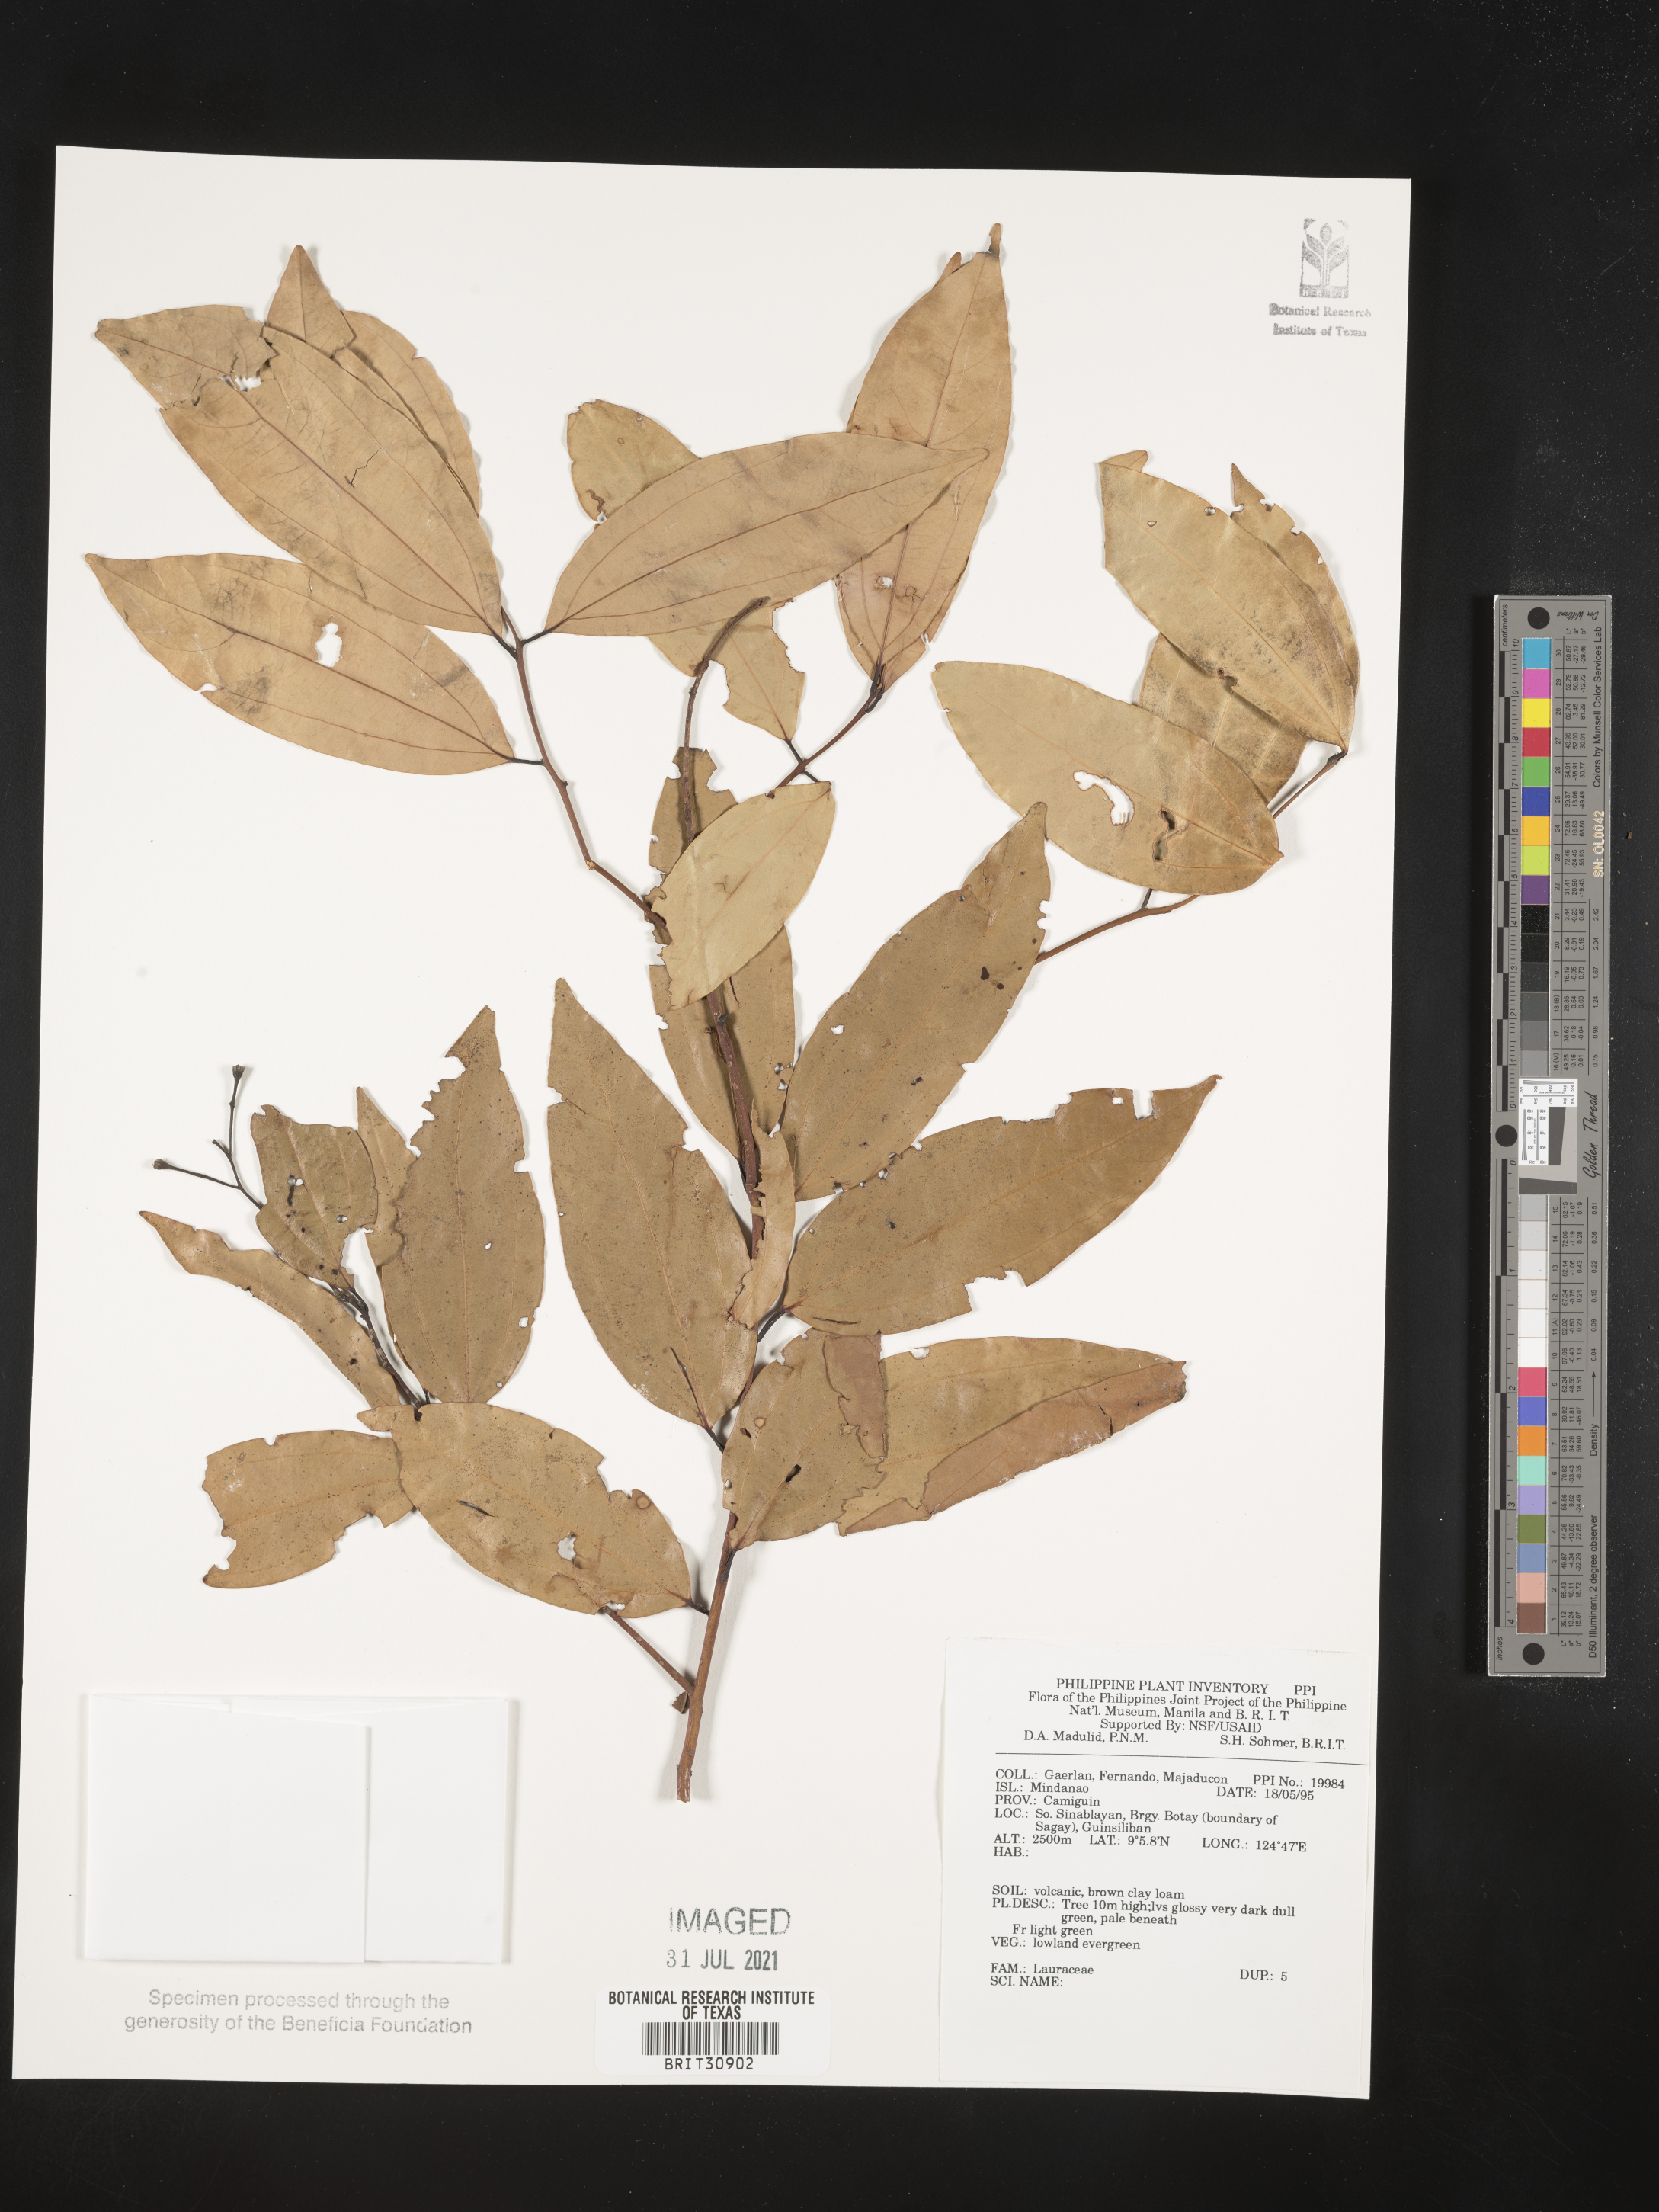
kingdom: Plantae
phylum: Tracheophyta
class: Magnoliopsida
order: Laurales
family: Lauraceae
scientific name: Lauraceae
